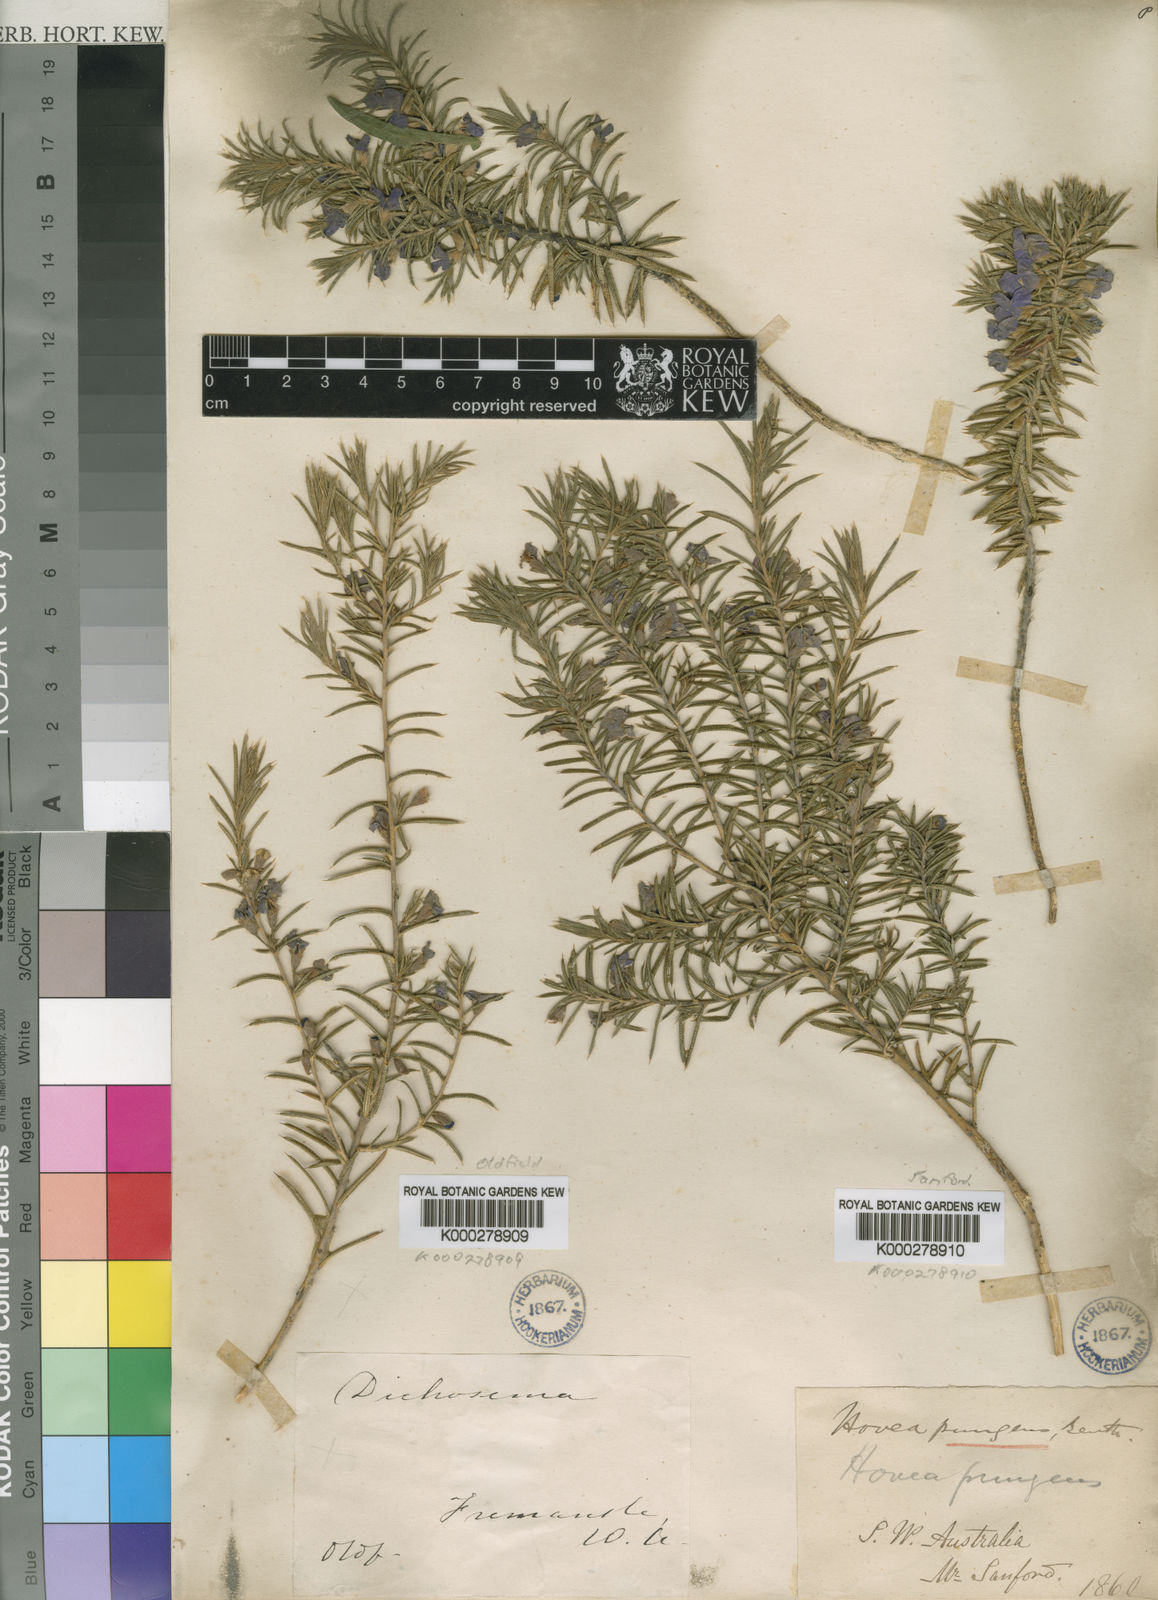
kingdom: Plantae
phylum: Tracheophyta
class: Magnoliopsida
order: Fabales
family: Fabaceae
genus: Mirbelia
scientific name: Mirbelia
